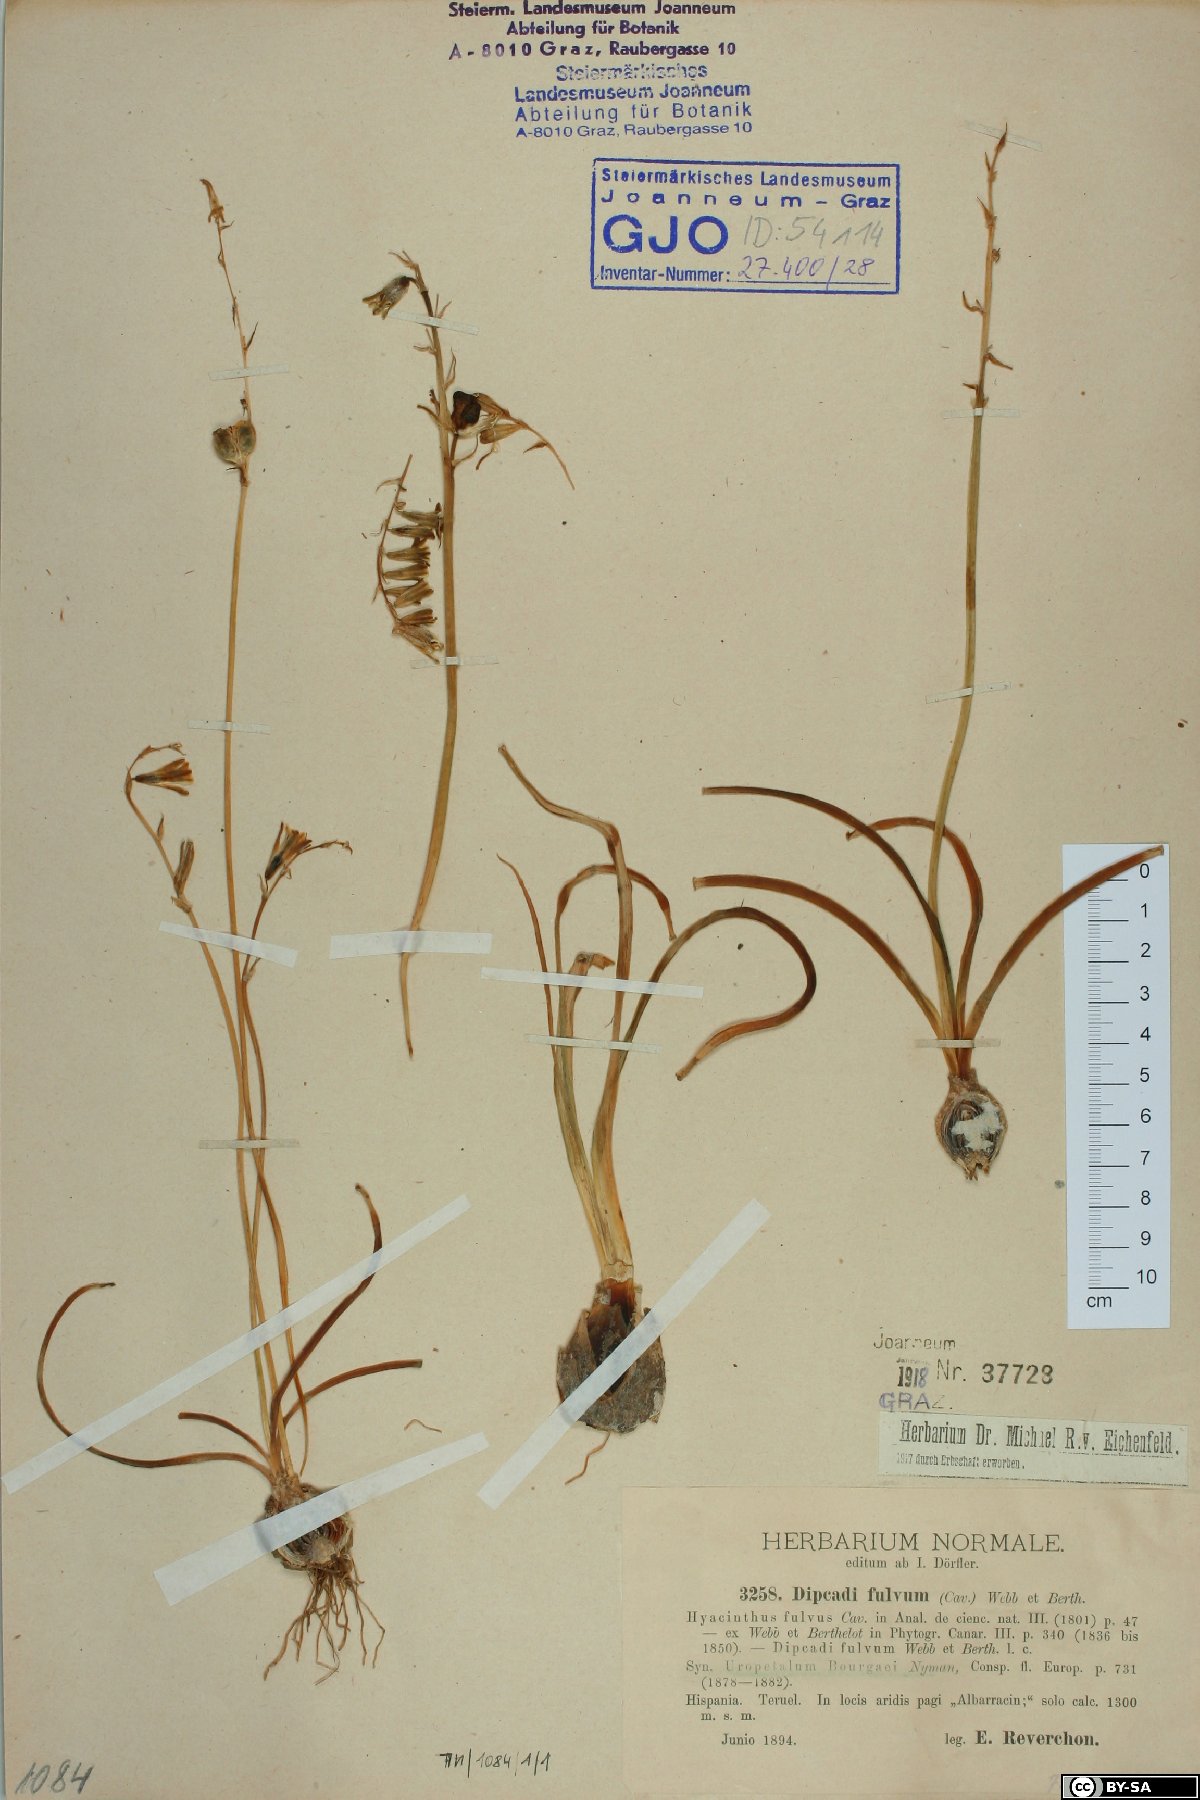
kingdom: Plantae
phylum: Tracheophyta
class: Liliopsida
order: Asparagales
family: Asparagaceae
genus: Dipcadi
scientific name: Dipcadi serotinum
